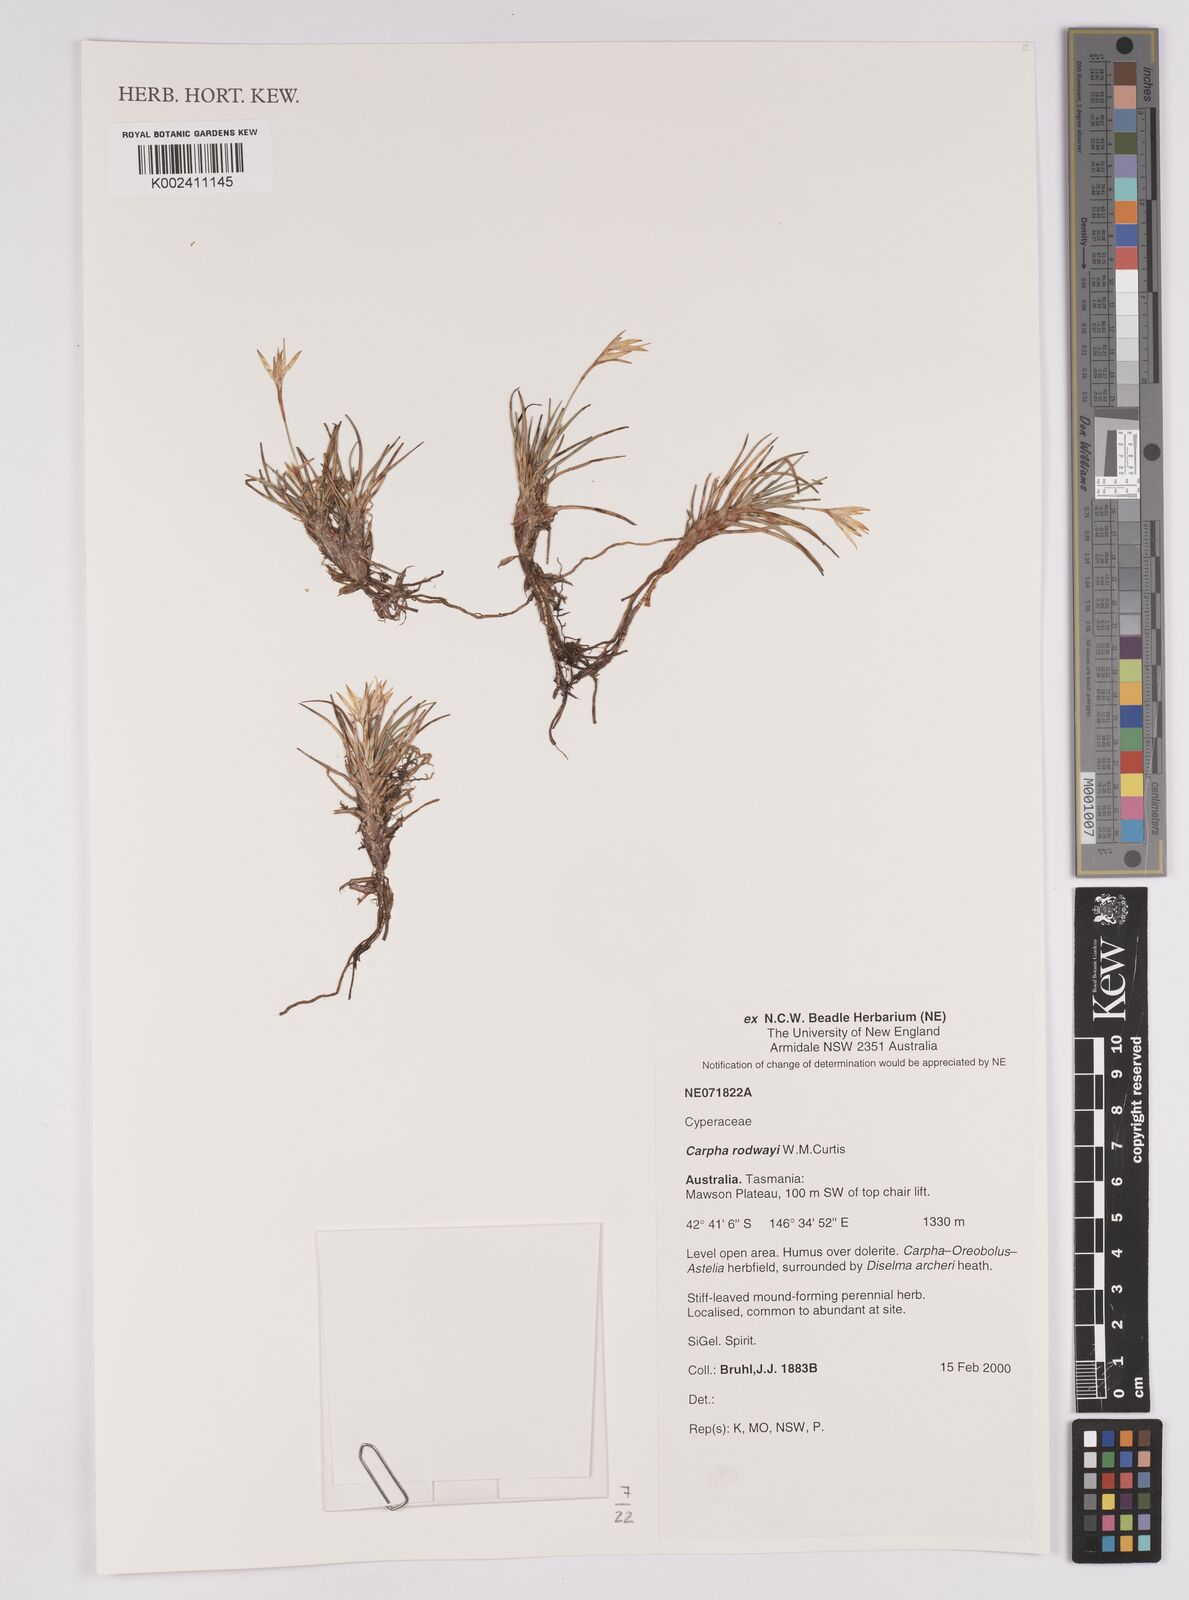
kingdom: Plantae
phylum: Tracheophyta
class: Liliopsida
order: Poales
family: Cyperaceae
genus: Carpha
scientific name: Carpha rodwayi
